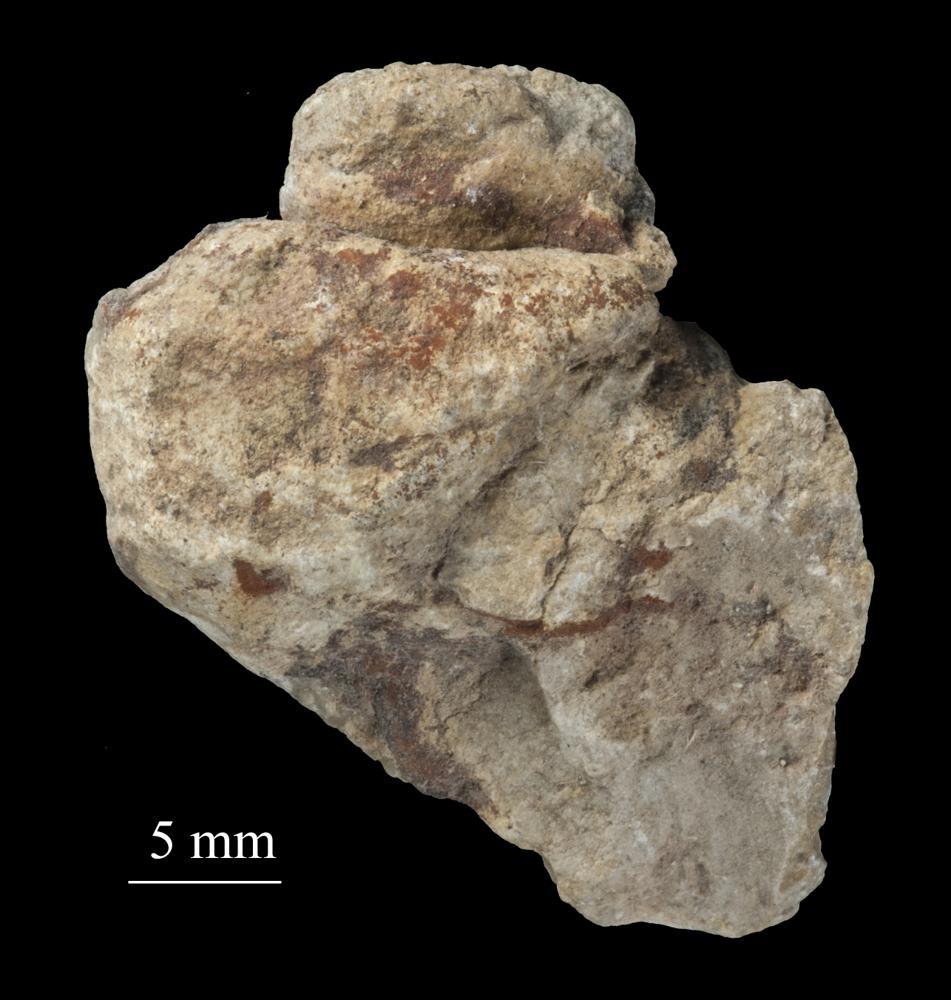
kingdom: Animalia
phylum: Mollusca
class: Gastropoda
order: Pleurotomariida
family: Phymatopleuridae
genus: Worthenia
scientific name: Worthenia
